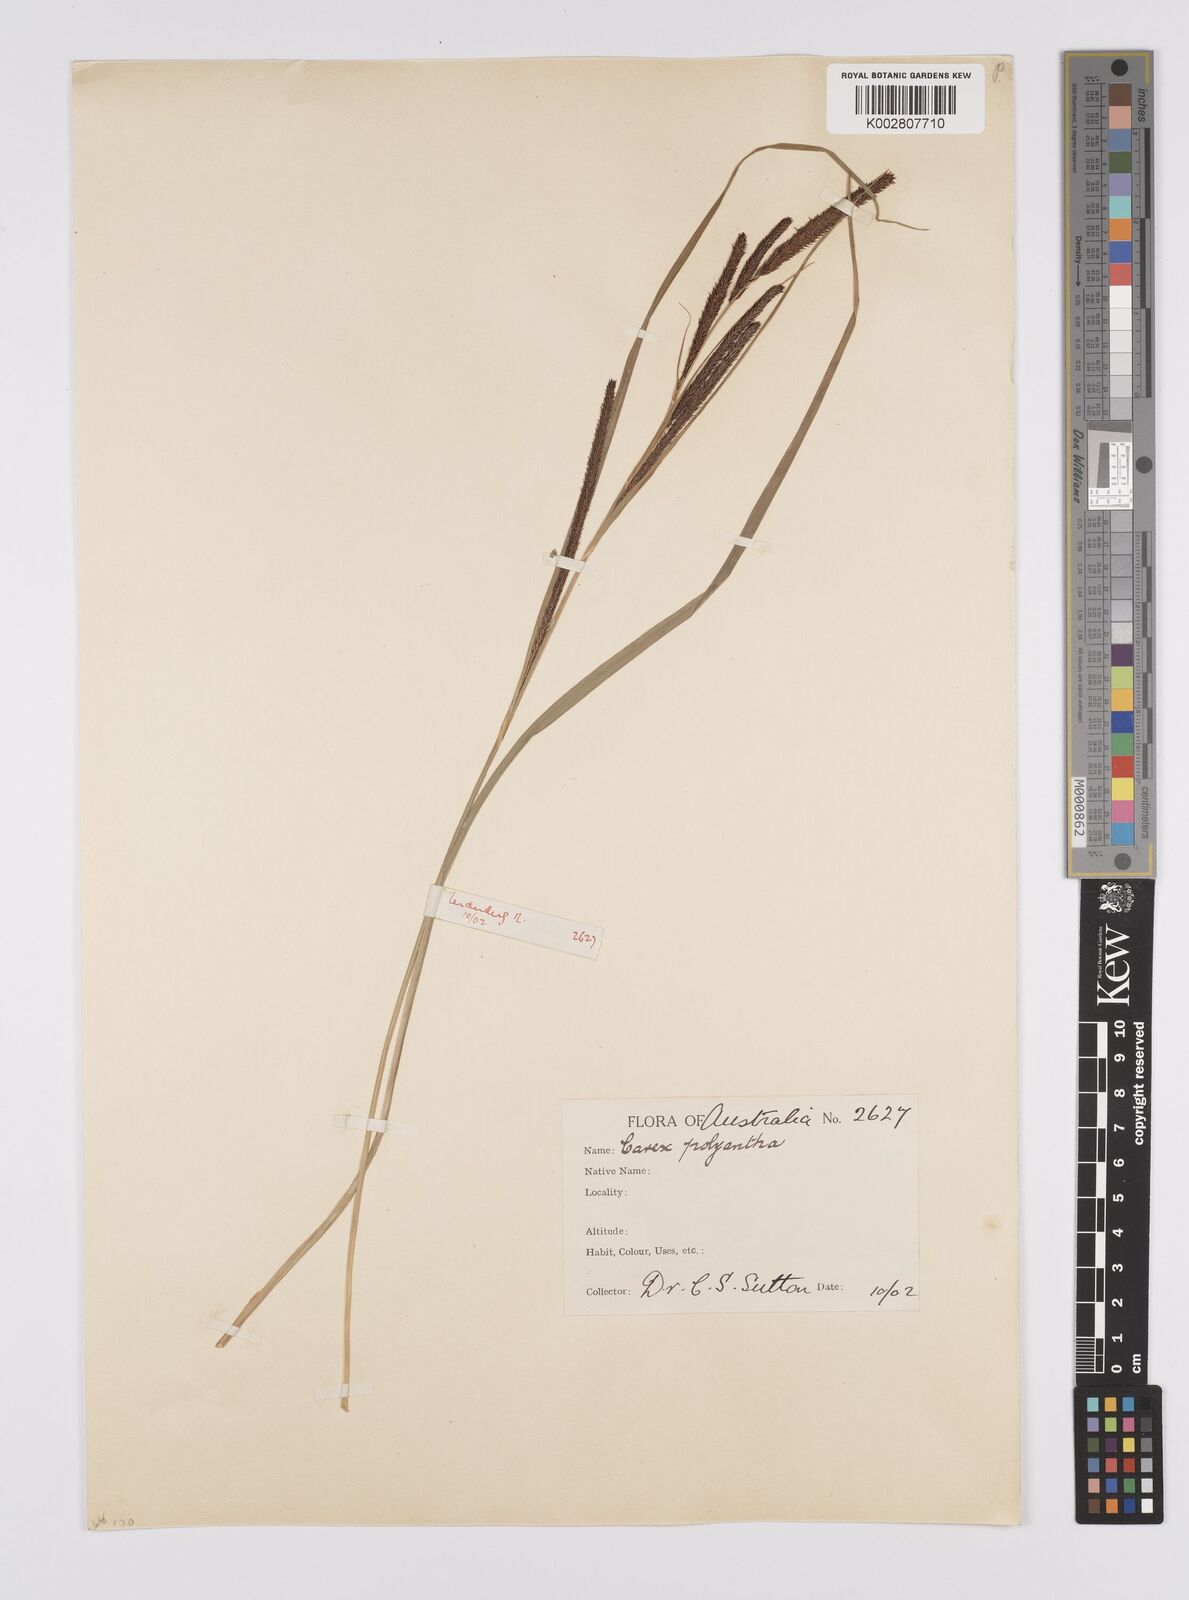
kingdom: Plantae
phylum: Tracheophyta
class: Liliopsida
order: Poales
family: Cyperaceae
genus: Carex
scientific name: Carex polyantha
